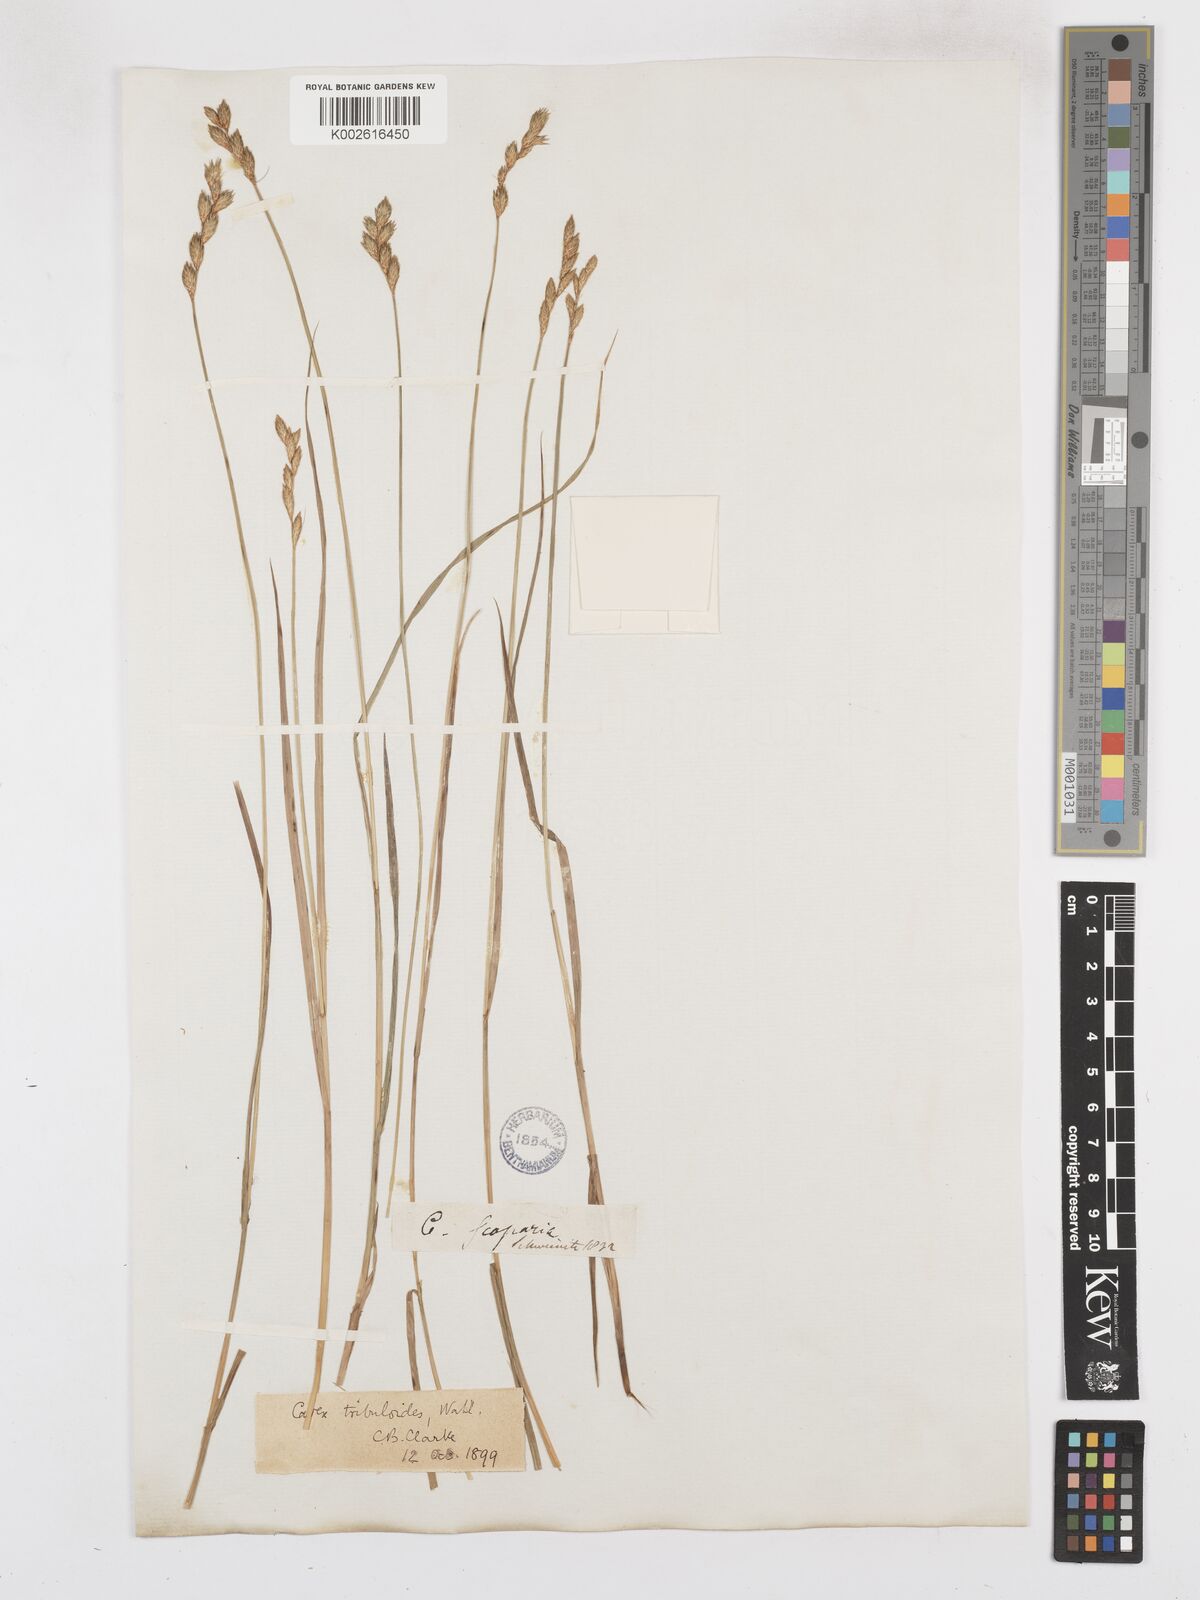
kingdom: Plantae
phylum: Tracheophyta
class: Liliopsida
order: Poales
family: Cyperaceae
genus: Carex
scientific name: Carex tribuloides
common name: Blunt broom sedge
